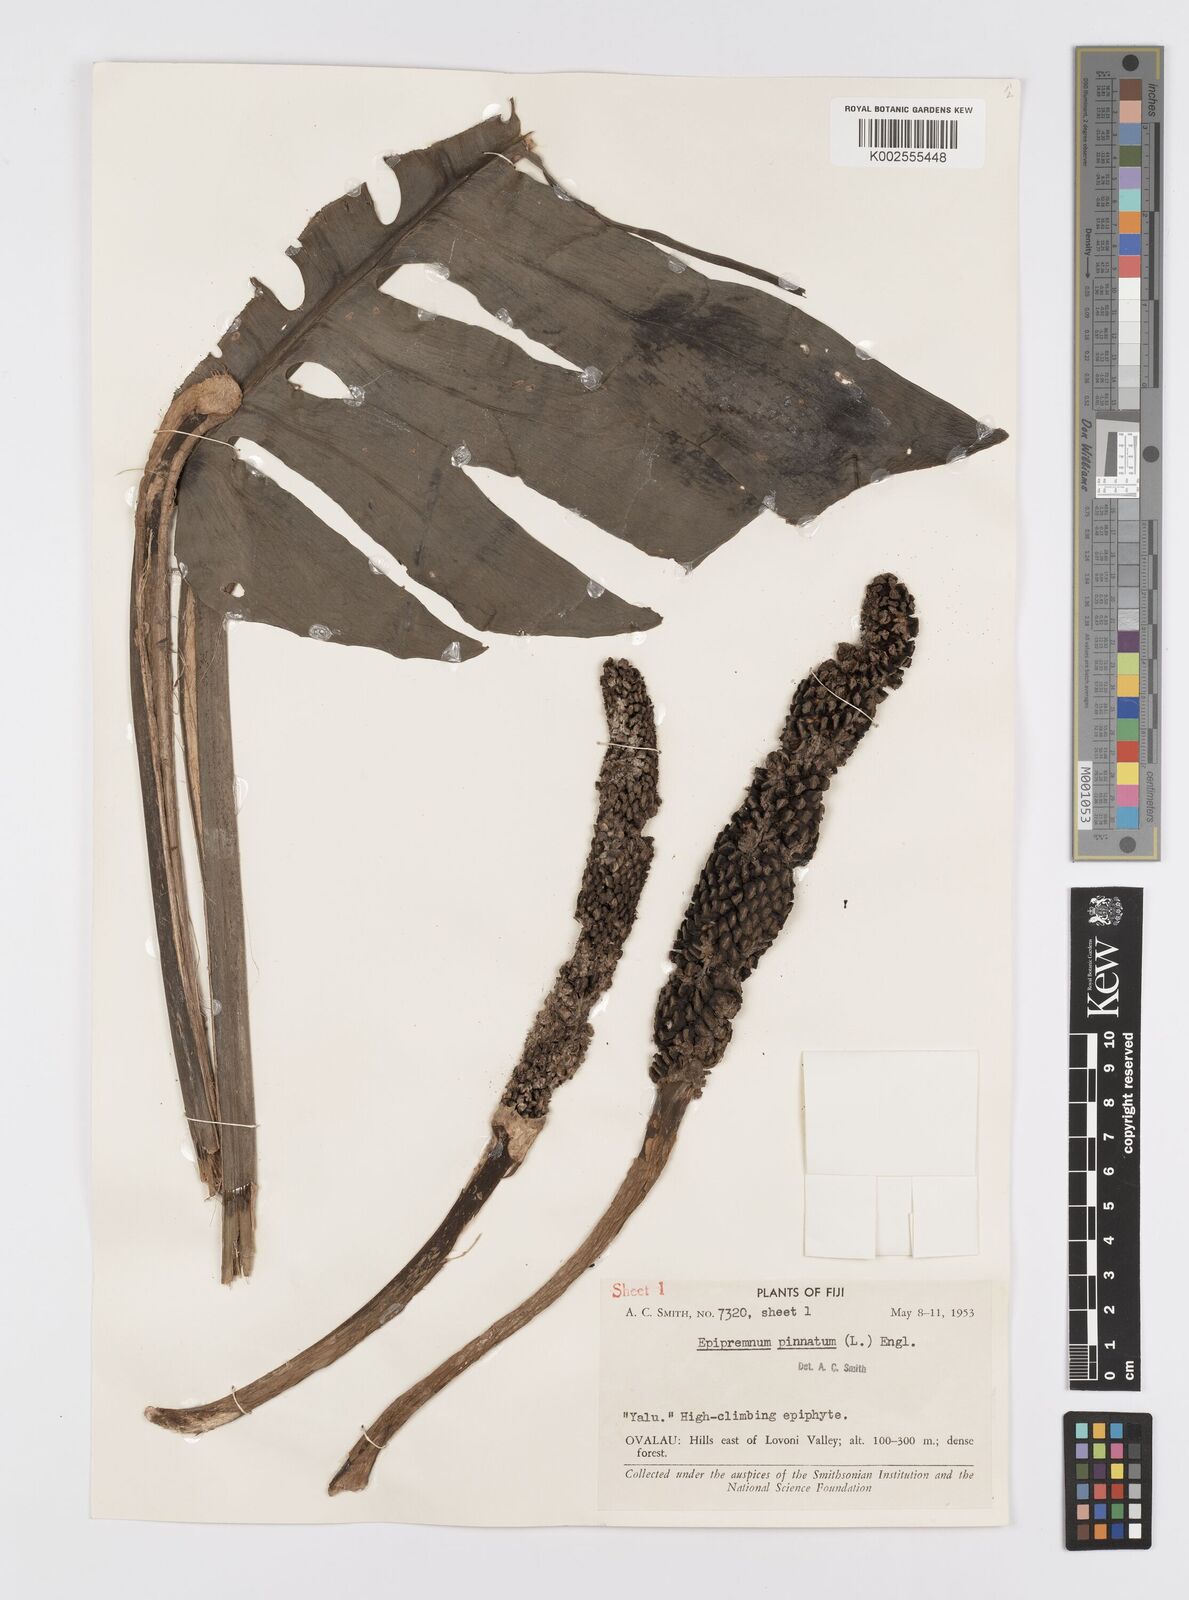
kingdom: Plantae
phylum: Tracheophyta
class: Liliopsida
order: Alismatales
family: Araceae
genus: Epipremnum
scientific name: Epipremnum pinnatum
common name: Centipede tongavine
